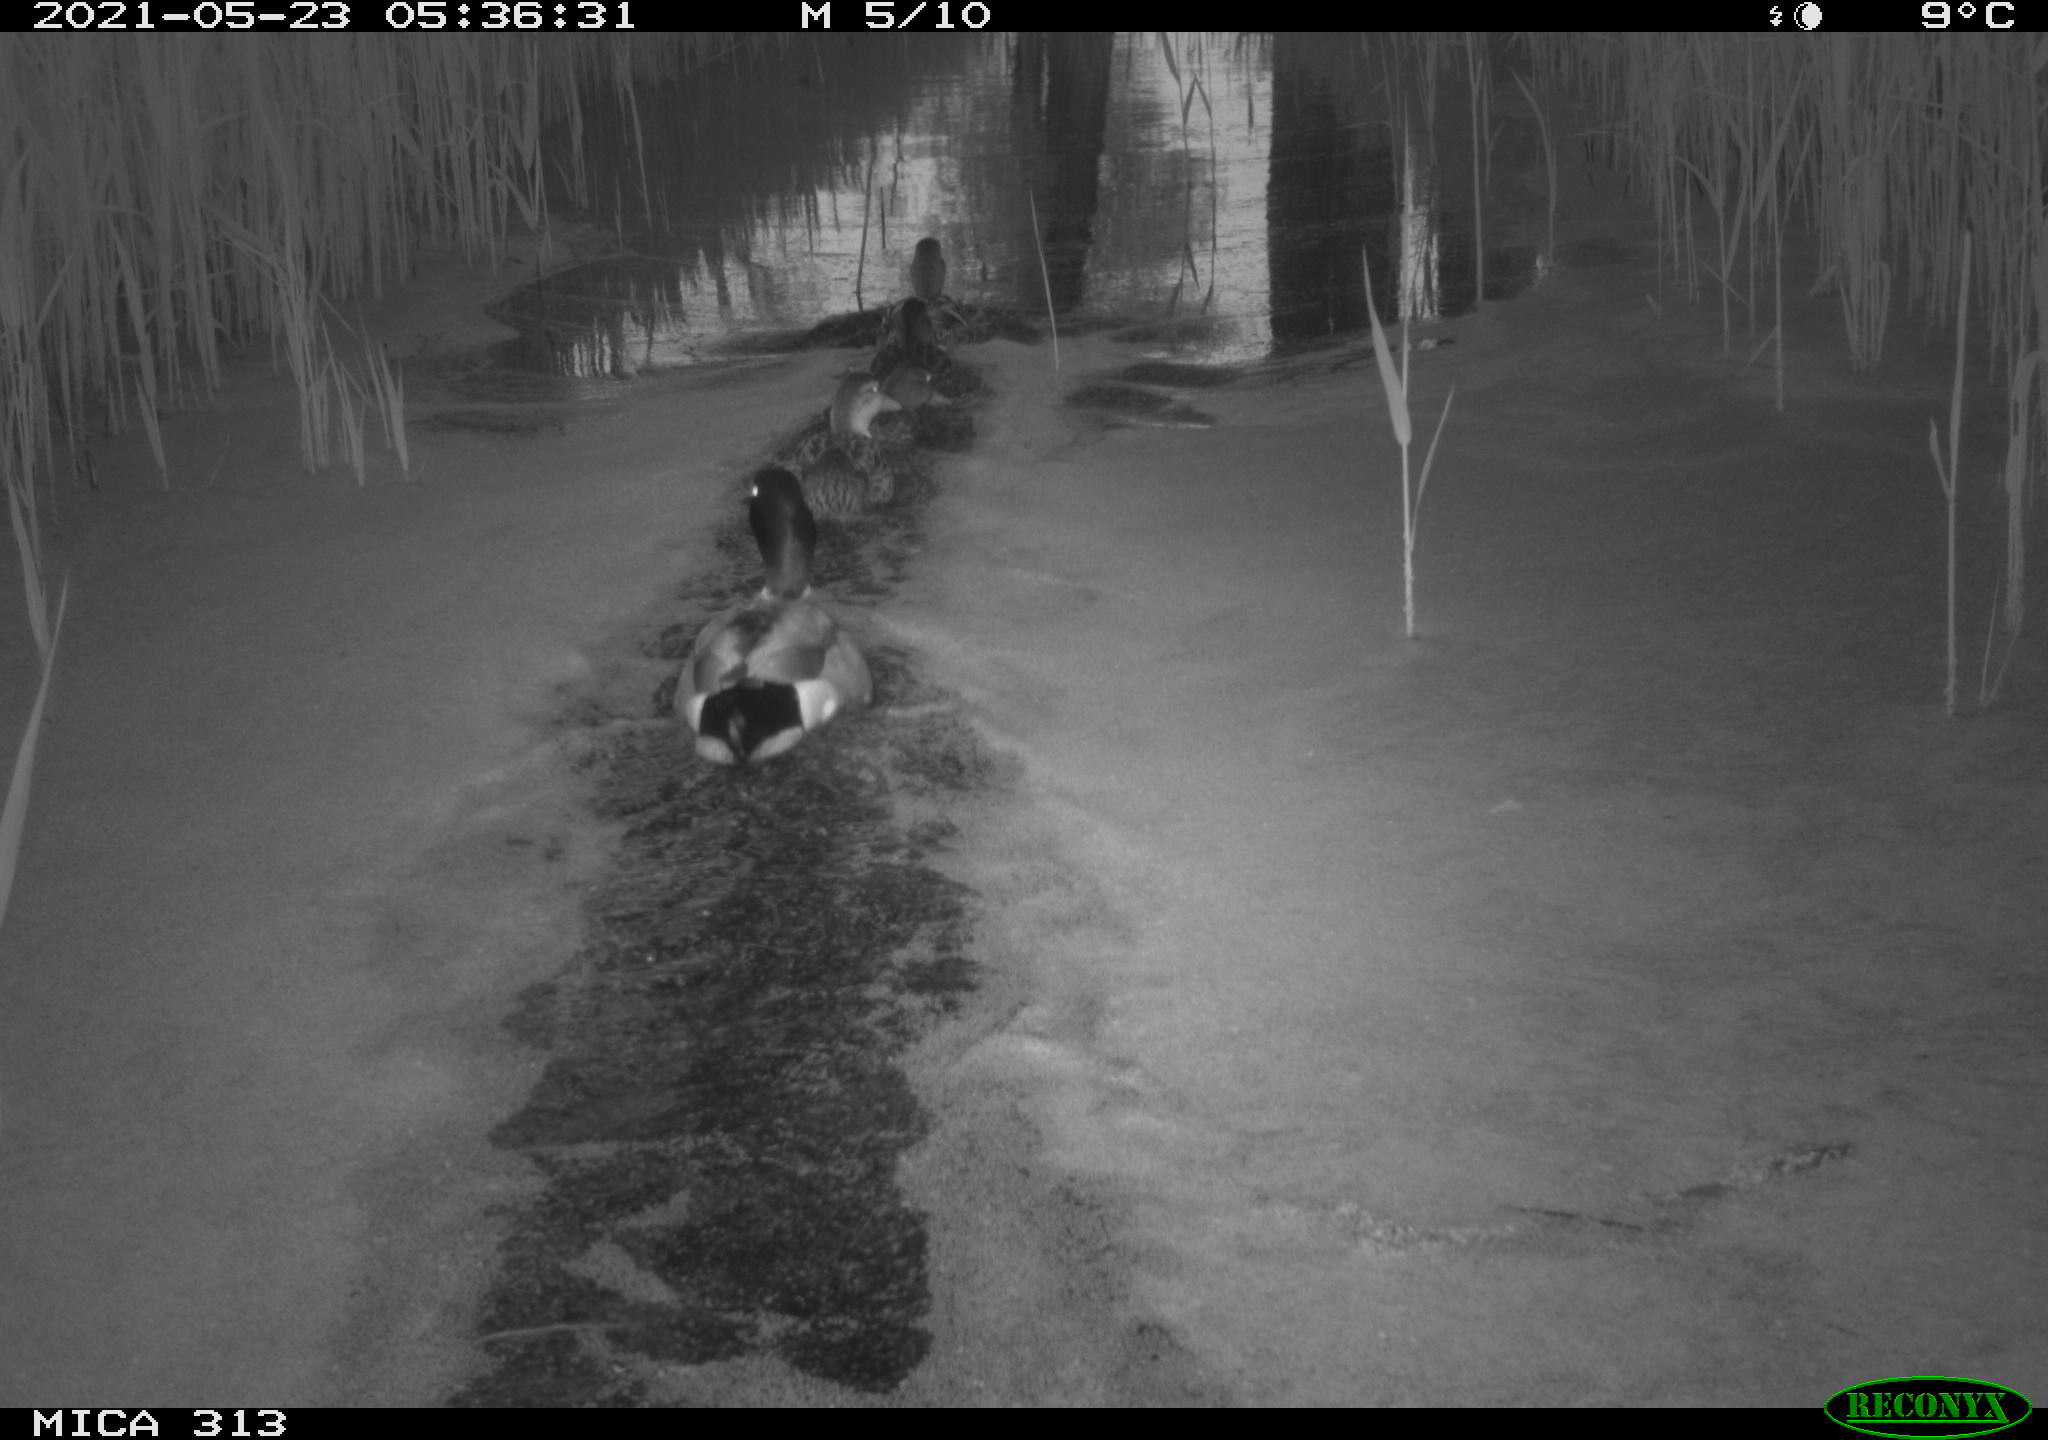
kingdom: Animalia
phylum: Chordata
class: Aves
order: Anseriformes
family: Anatidae
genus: Anas
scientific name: Anas platyrhynchos
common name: Mallard
